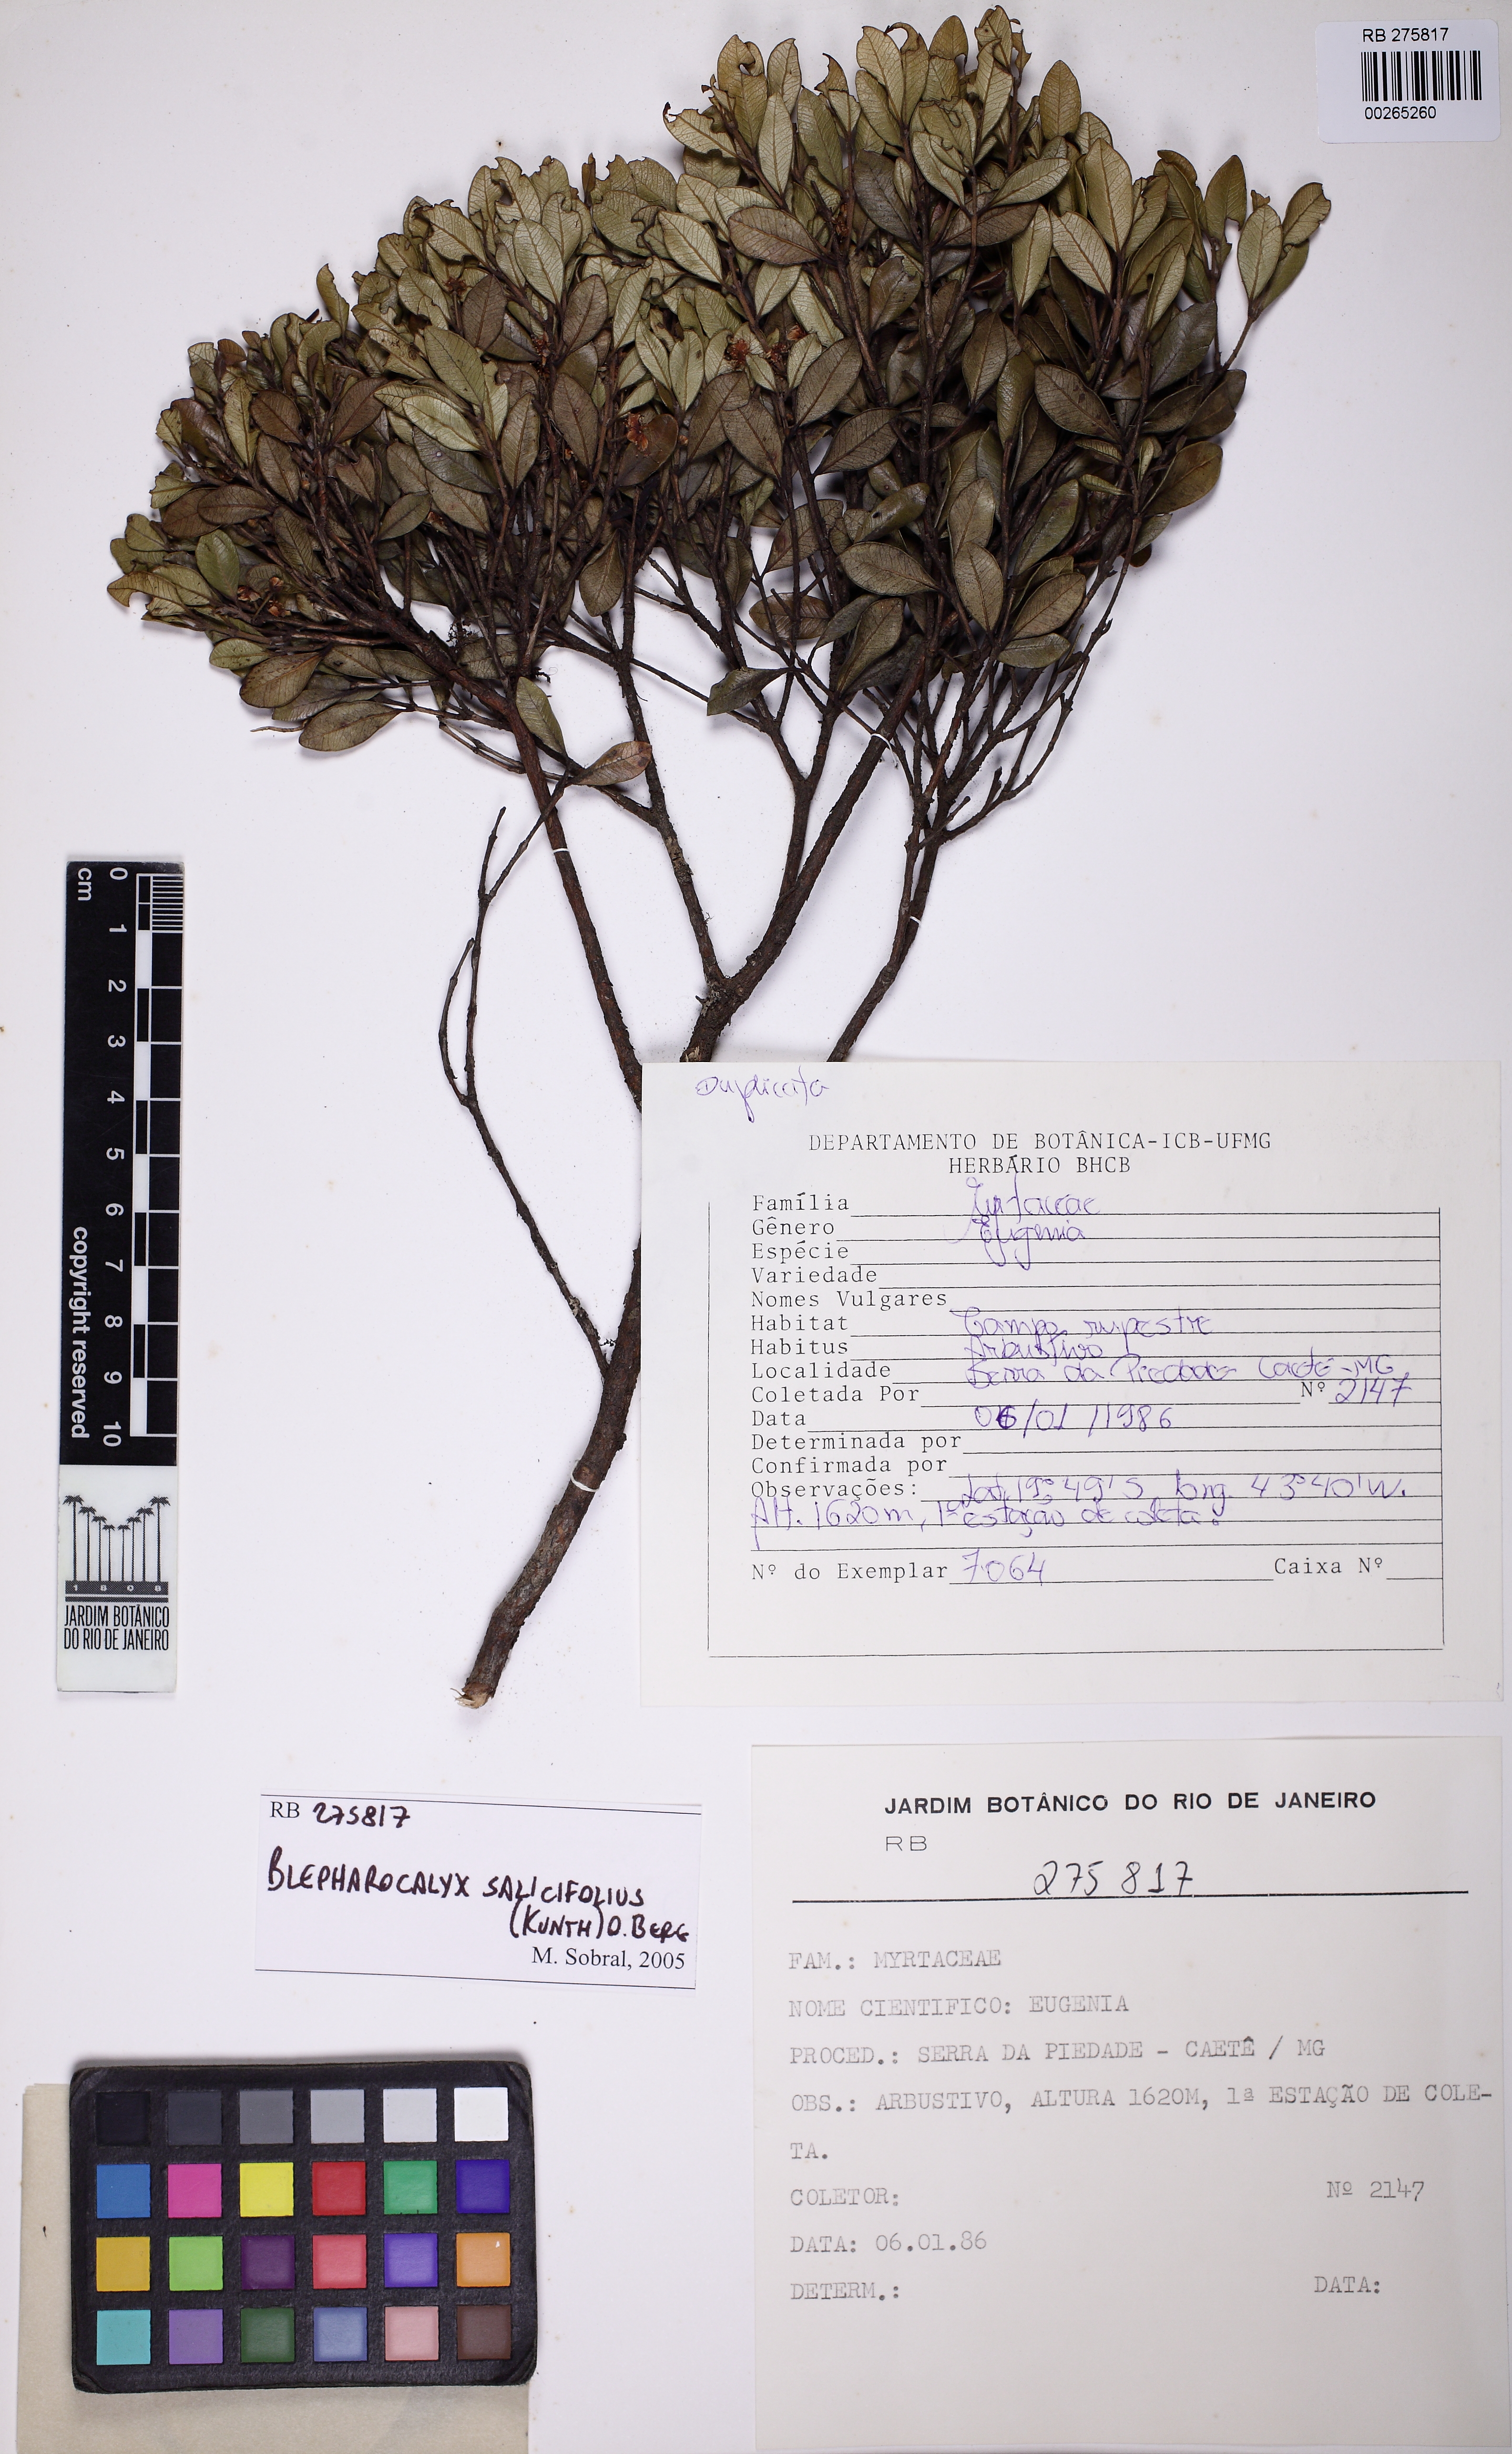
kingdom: Plantae
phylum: Tracheophyta
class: Magnoliopsida
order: Myrtales
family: Myrtaceae
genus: Blepharocalyx
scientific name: Blepharocalyx salicifolius
